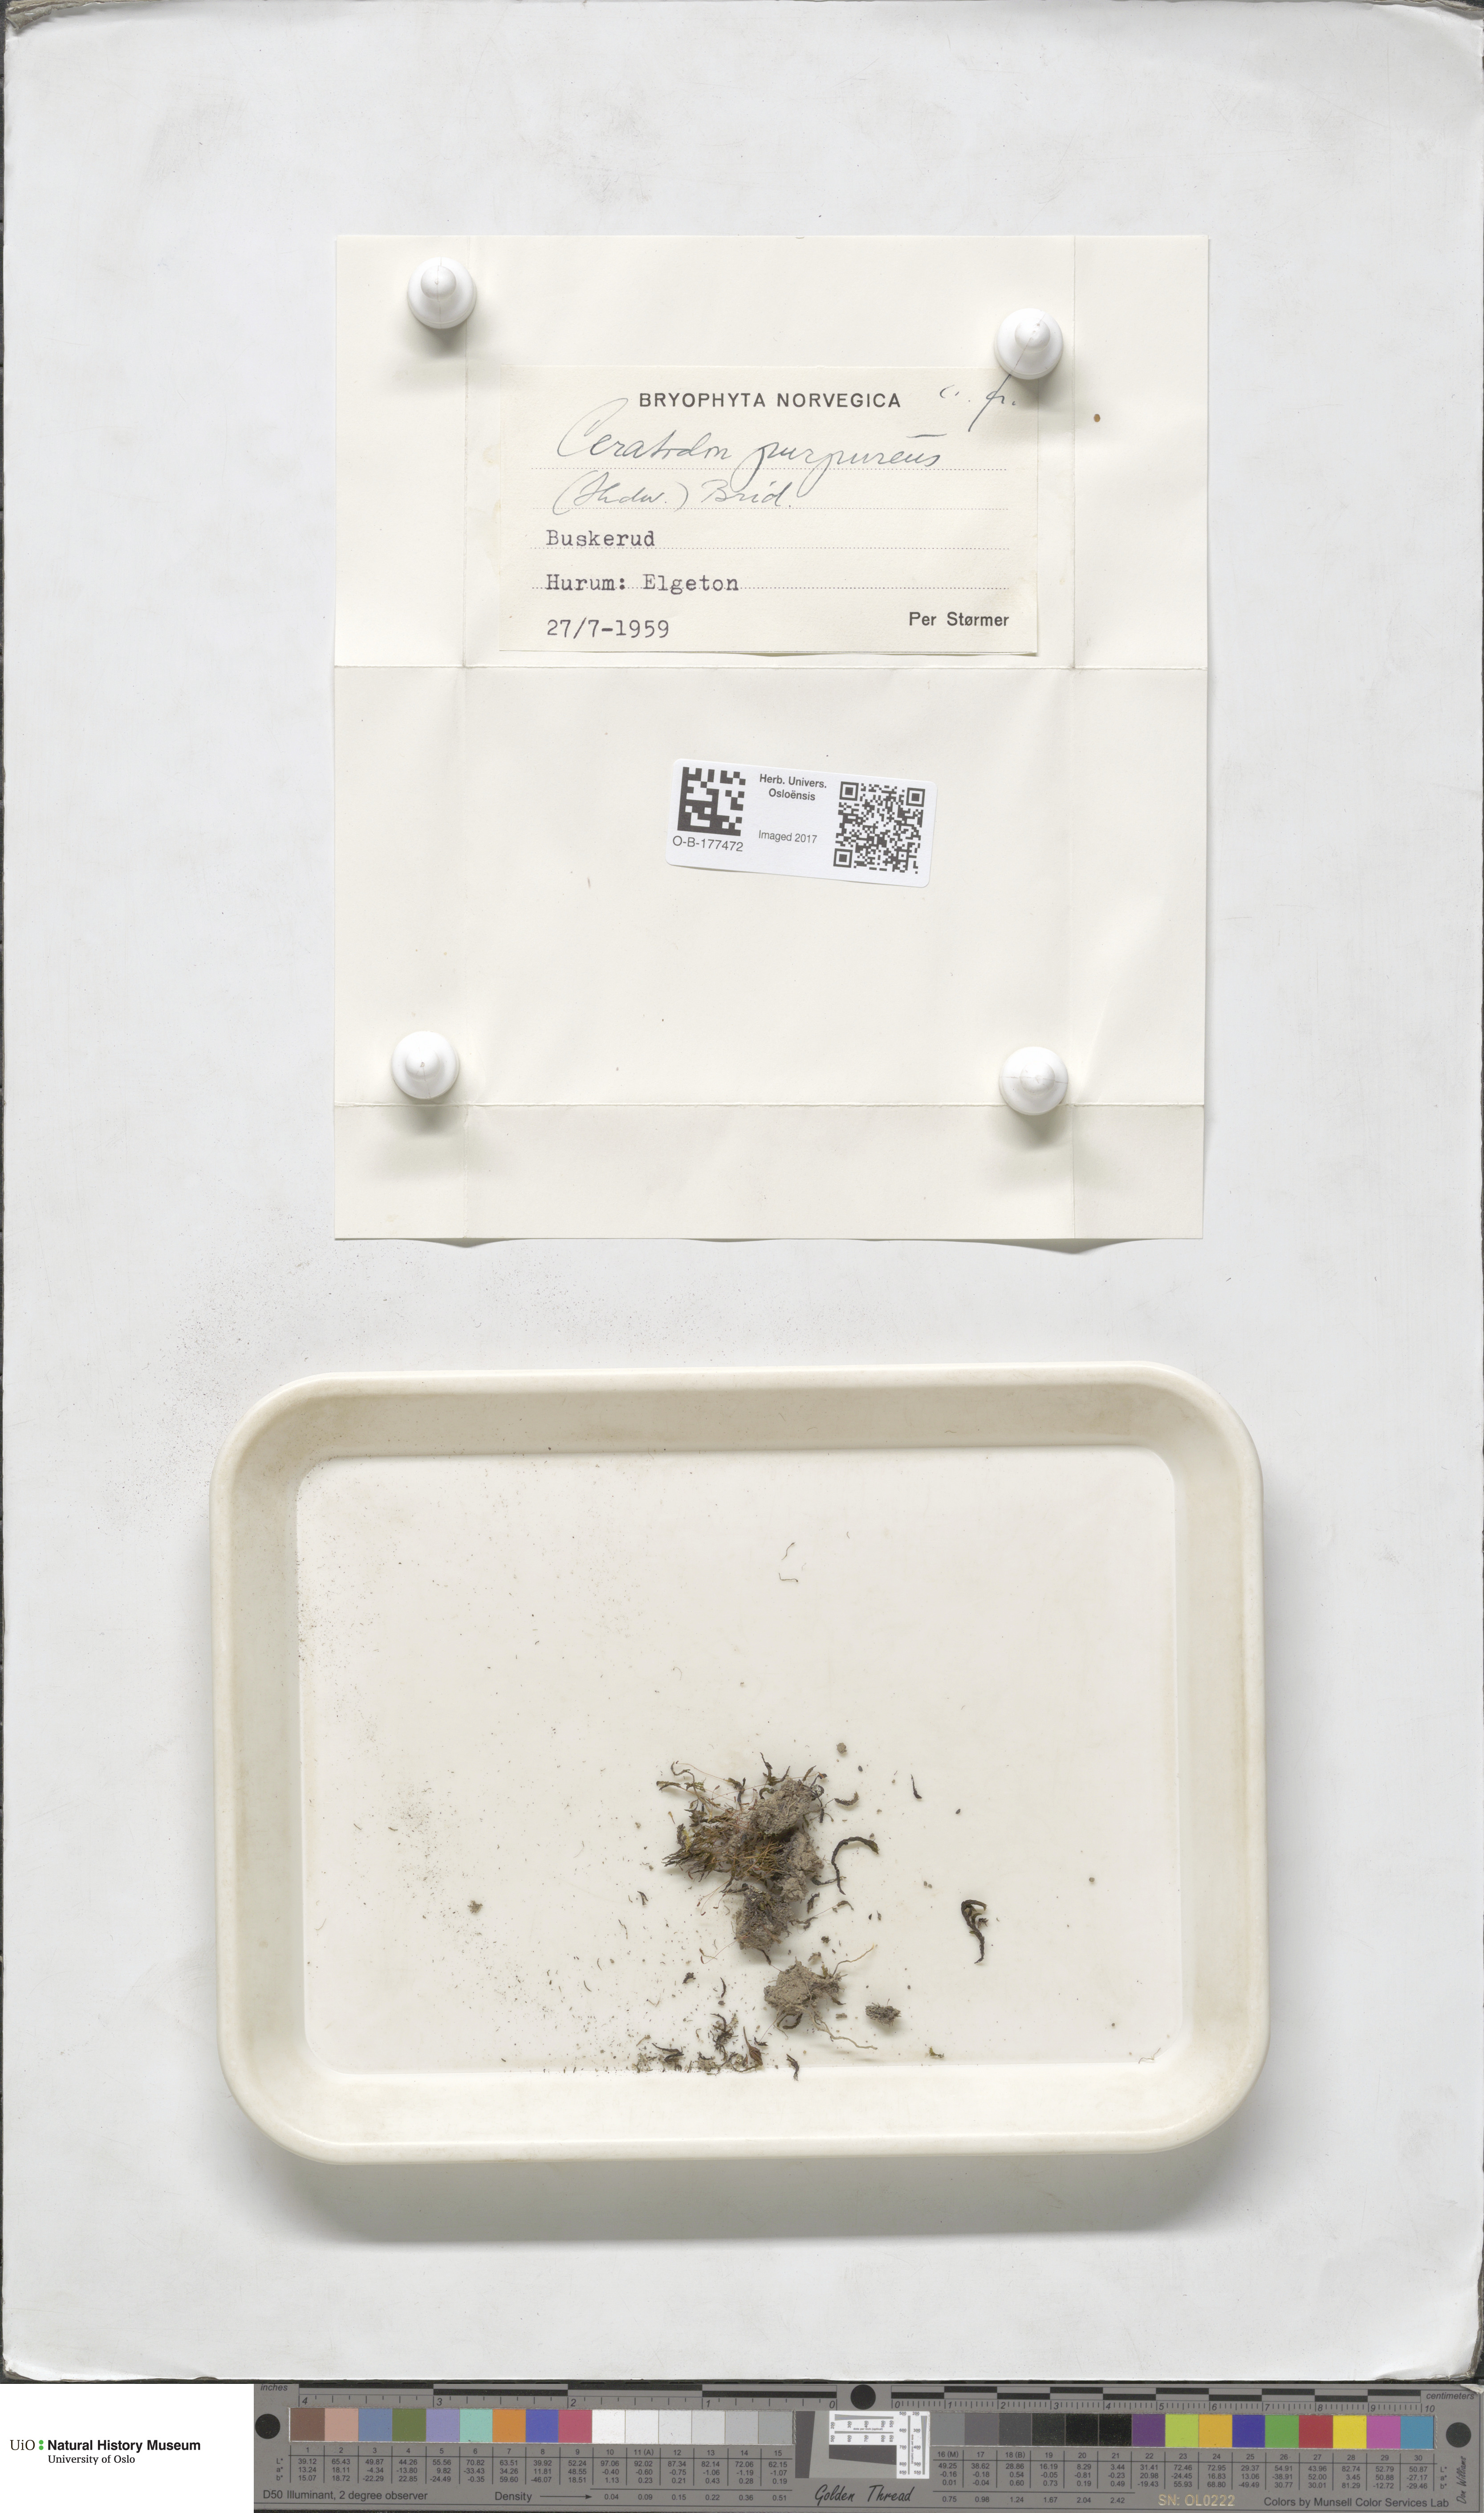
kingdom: Plantae
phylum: Bryophyta
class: Bryopsida
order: Dicranales
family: Ditrichaceae
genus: Ceratodon
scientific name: Ceratodon purpureus
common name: Redshank
